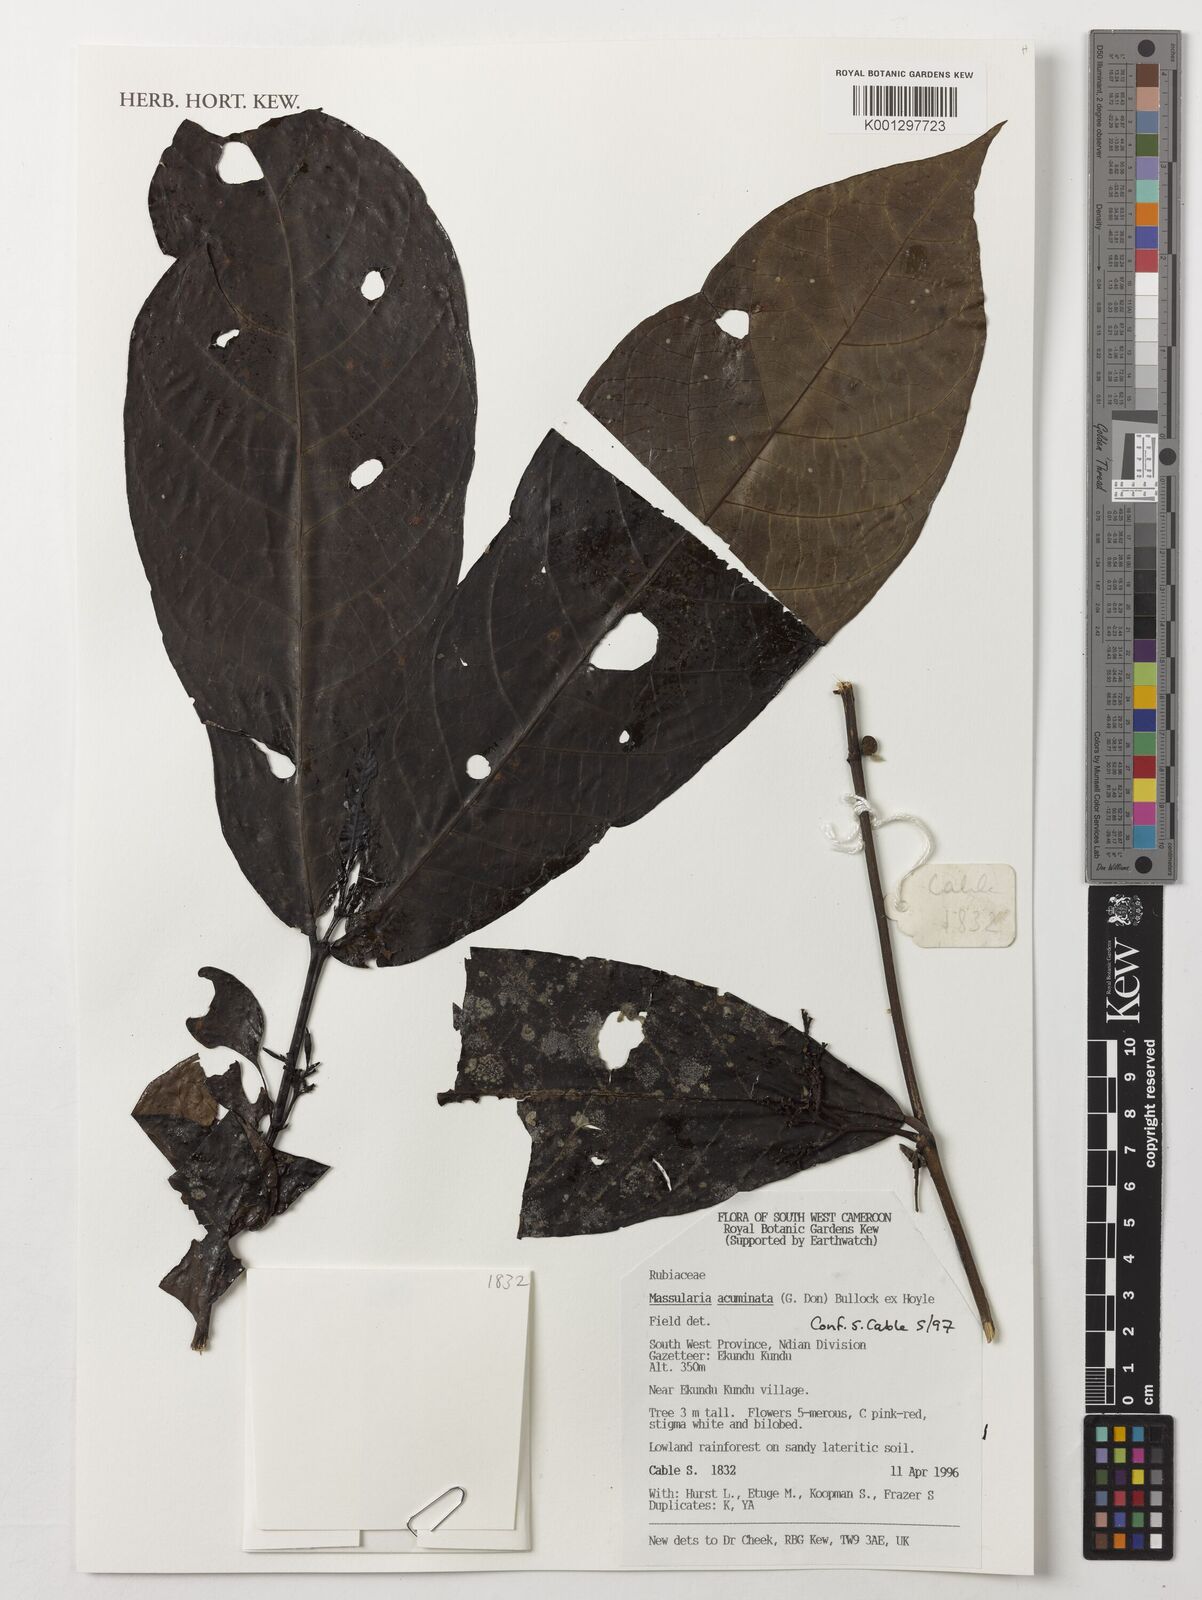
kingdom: Plantae
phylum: Tracheophyta
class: Magnoliopsida
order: Gentianales
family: Rubiaceae
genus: Massularia
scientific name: Massularia acuminata
